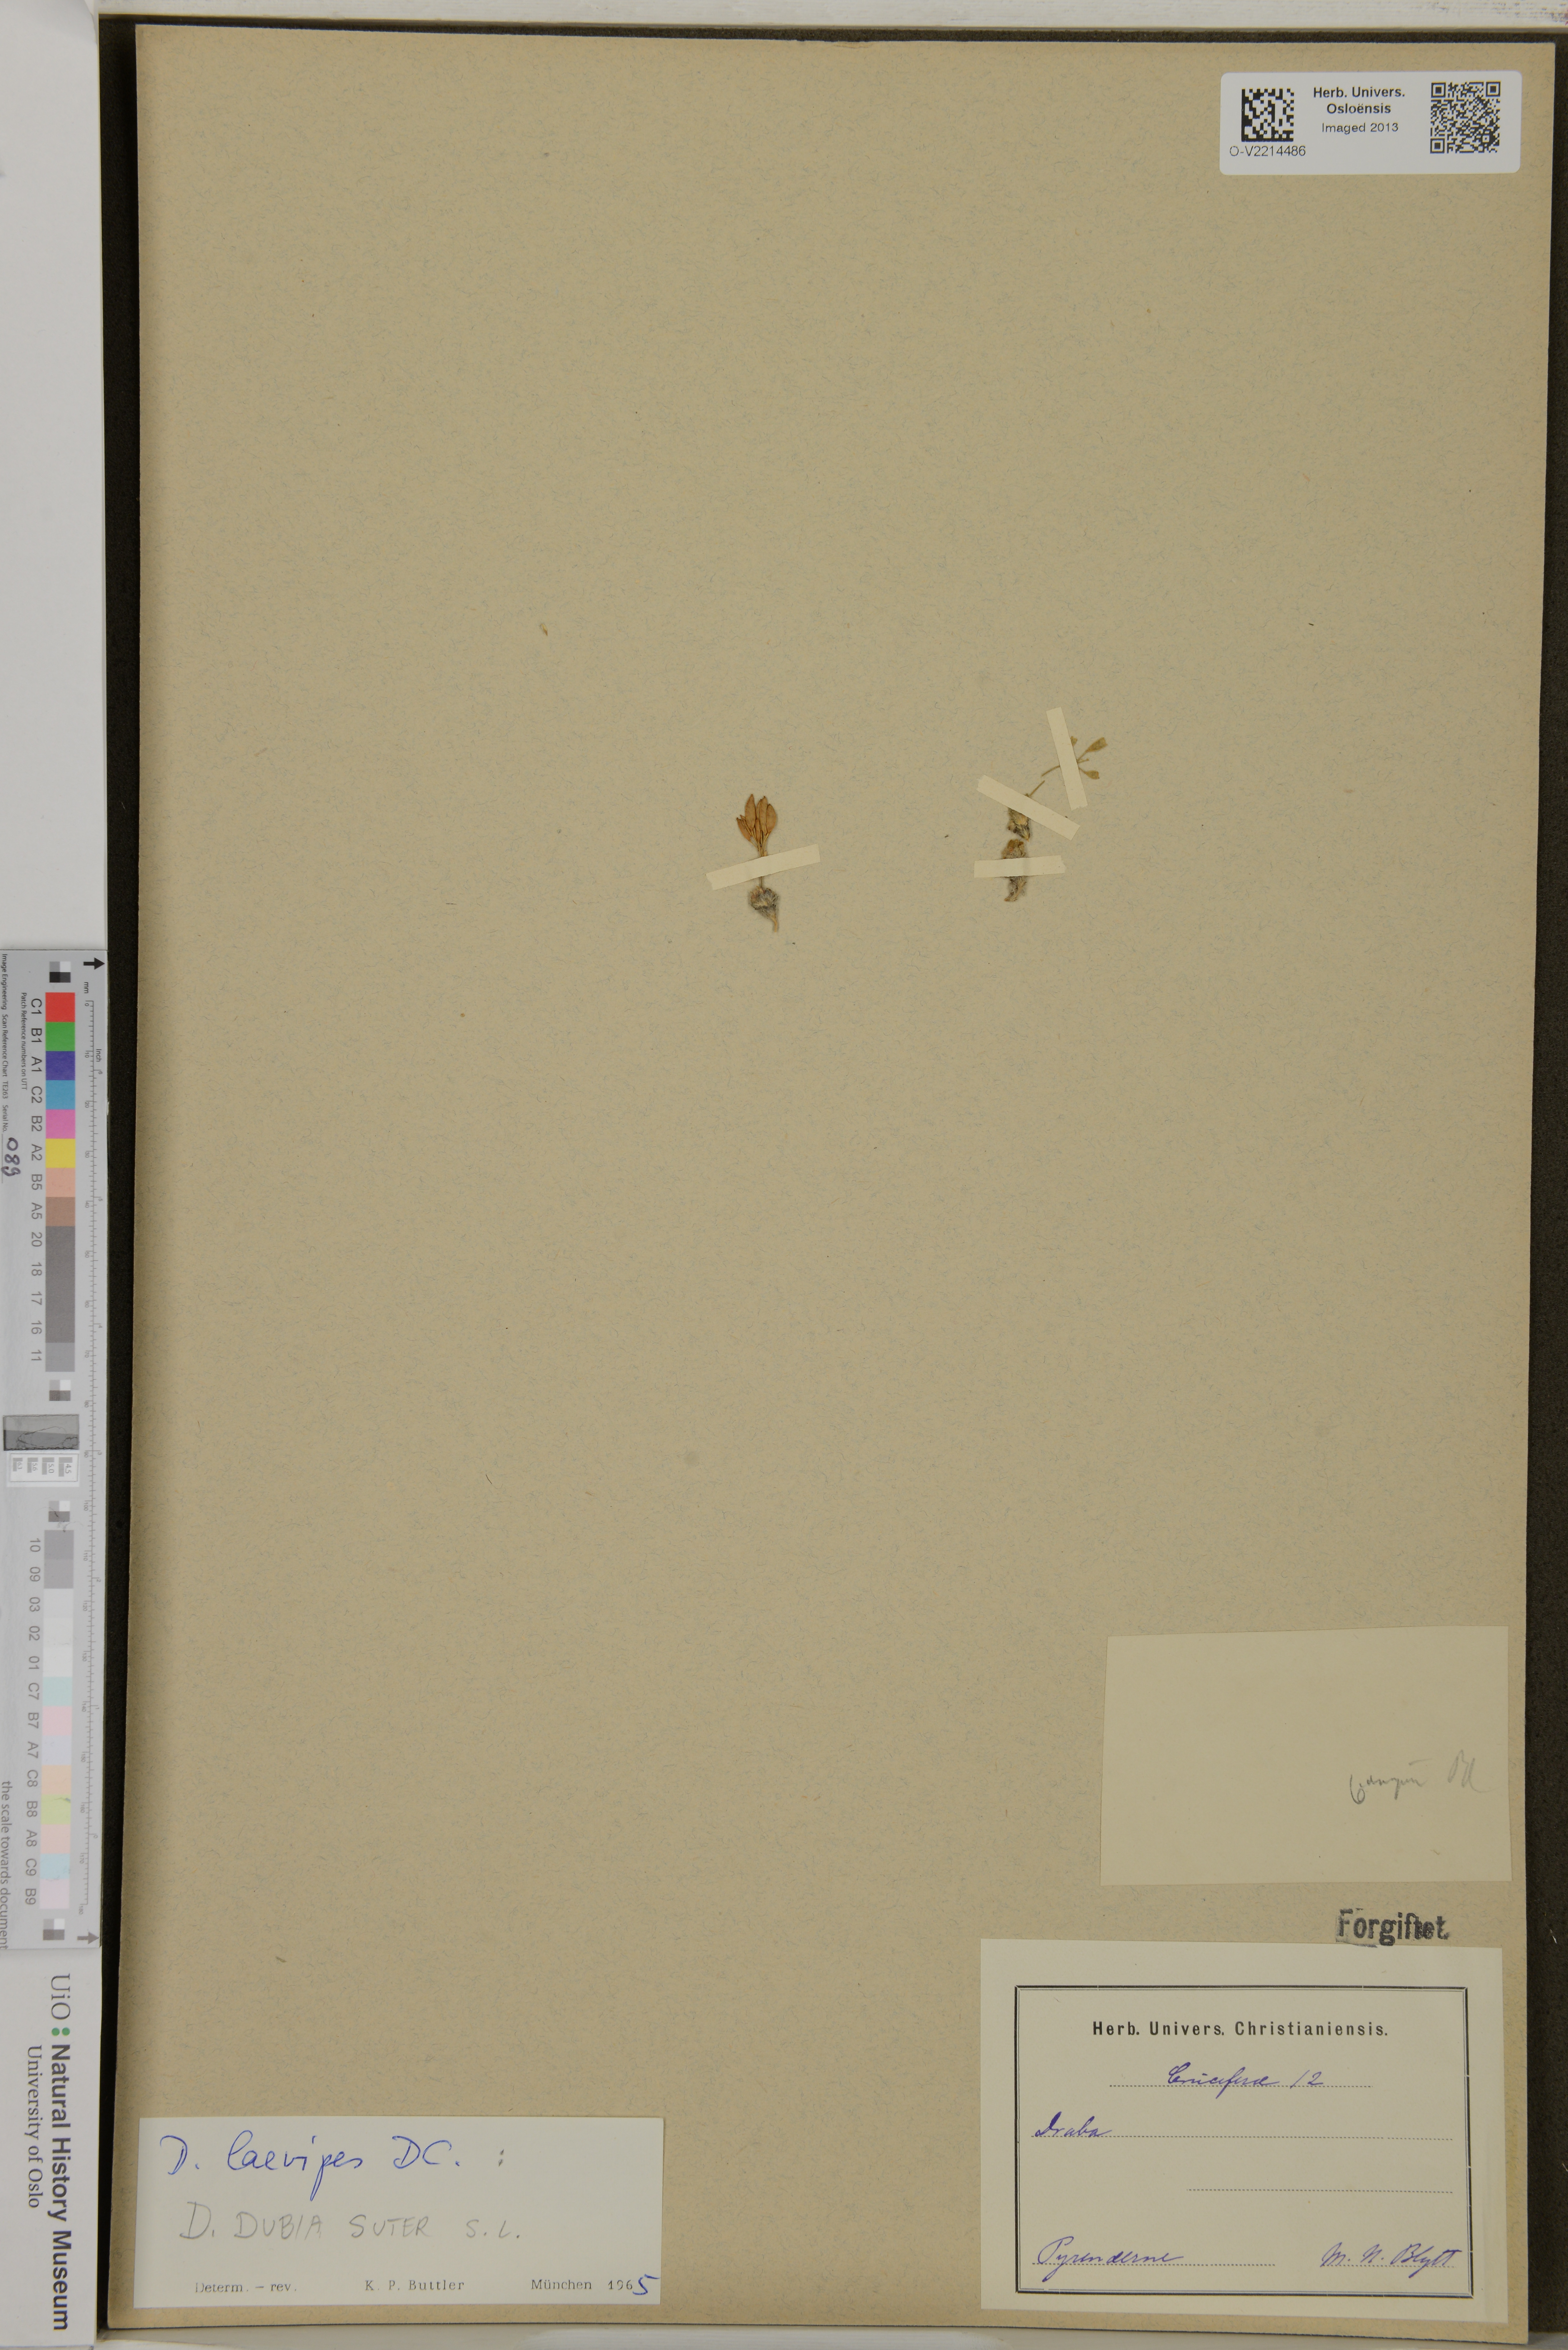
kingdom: Plantae
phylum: Tracheophyta
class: Magnoliopsida
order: Brassicales
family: Brassicaceae
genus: Draba
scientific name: Draba
